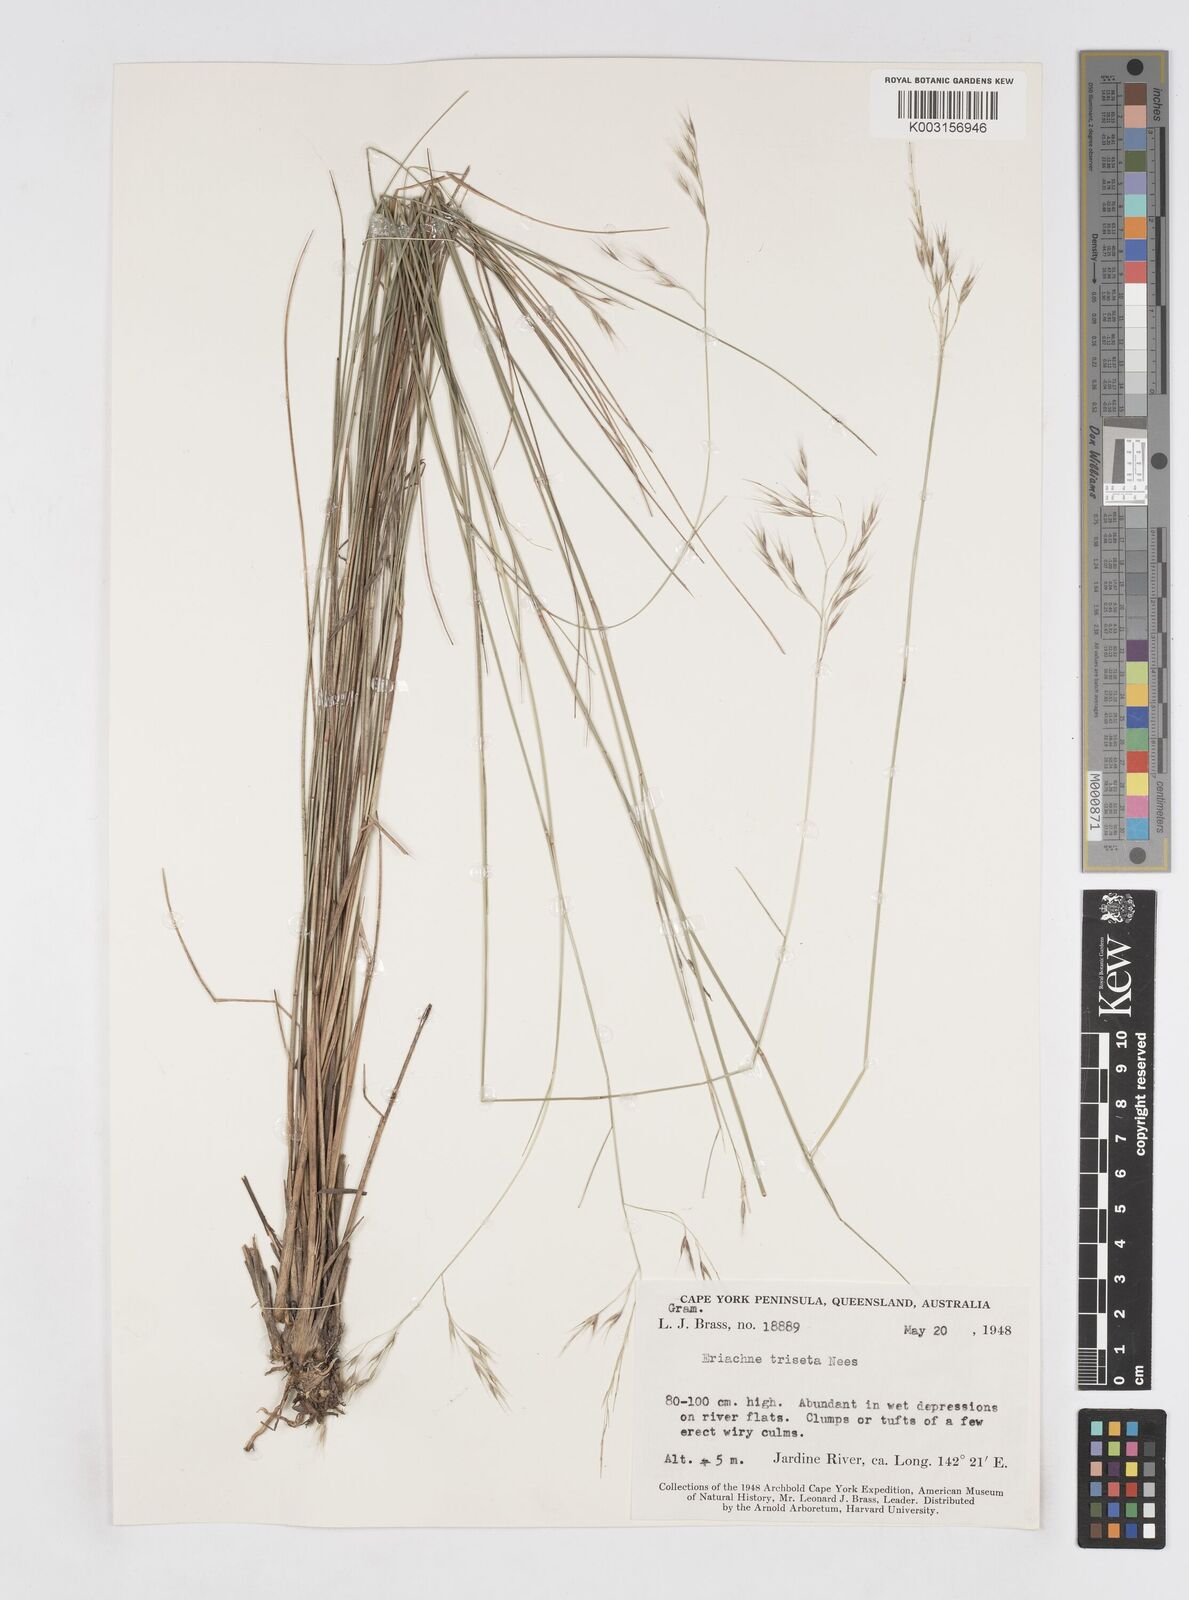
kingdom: Plantae
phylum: Tracheophyta
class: Liliopsida
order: Poales
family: Poaceae
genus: Eriachne
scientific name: Eriachne triseta
